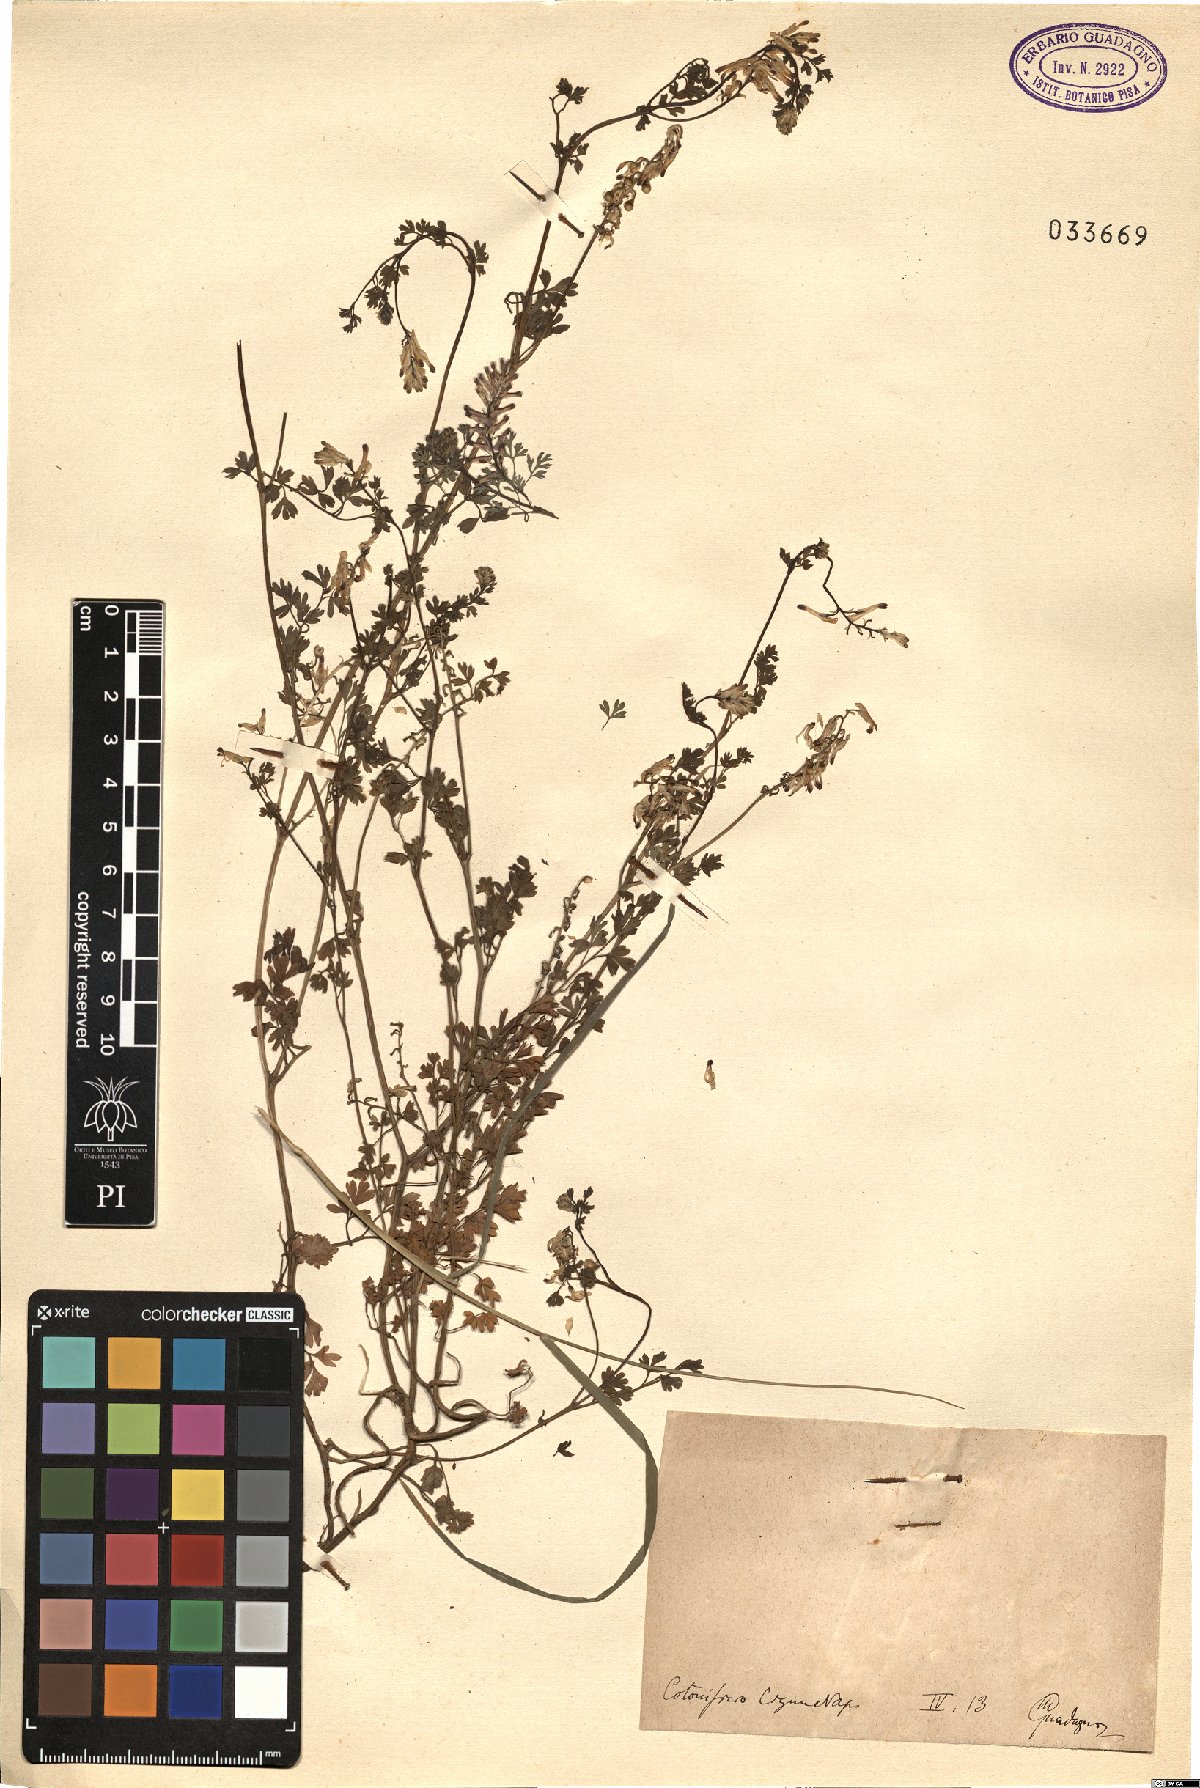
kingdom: Plantae
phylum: Tracheophyta
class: Magnoliopsida
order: Ranunculales
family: Papaveraceae
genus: Fumaria
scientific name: Fumaria
